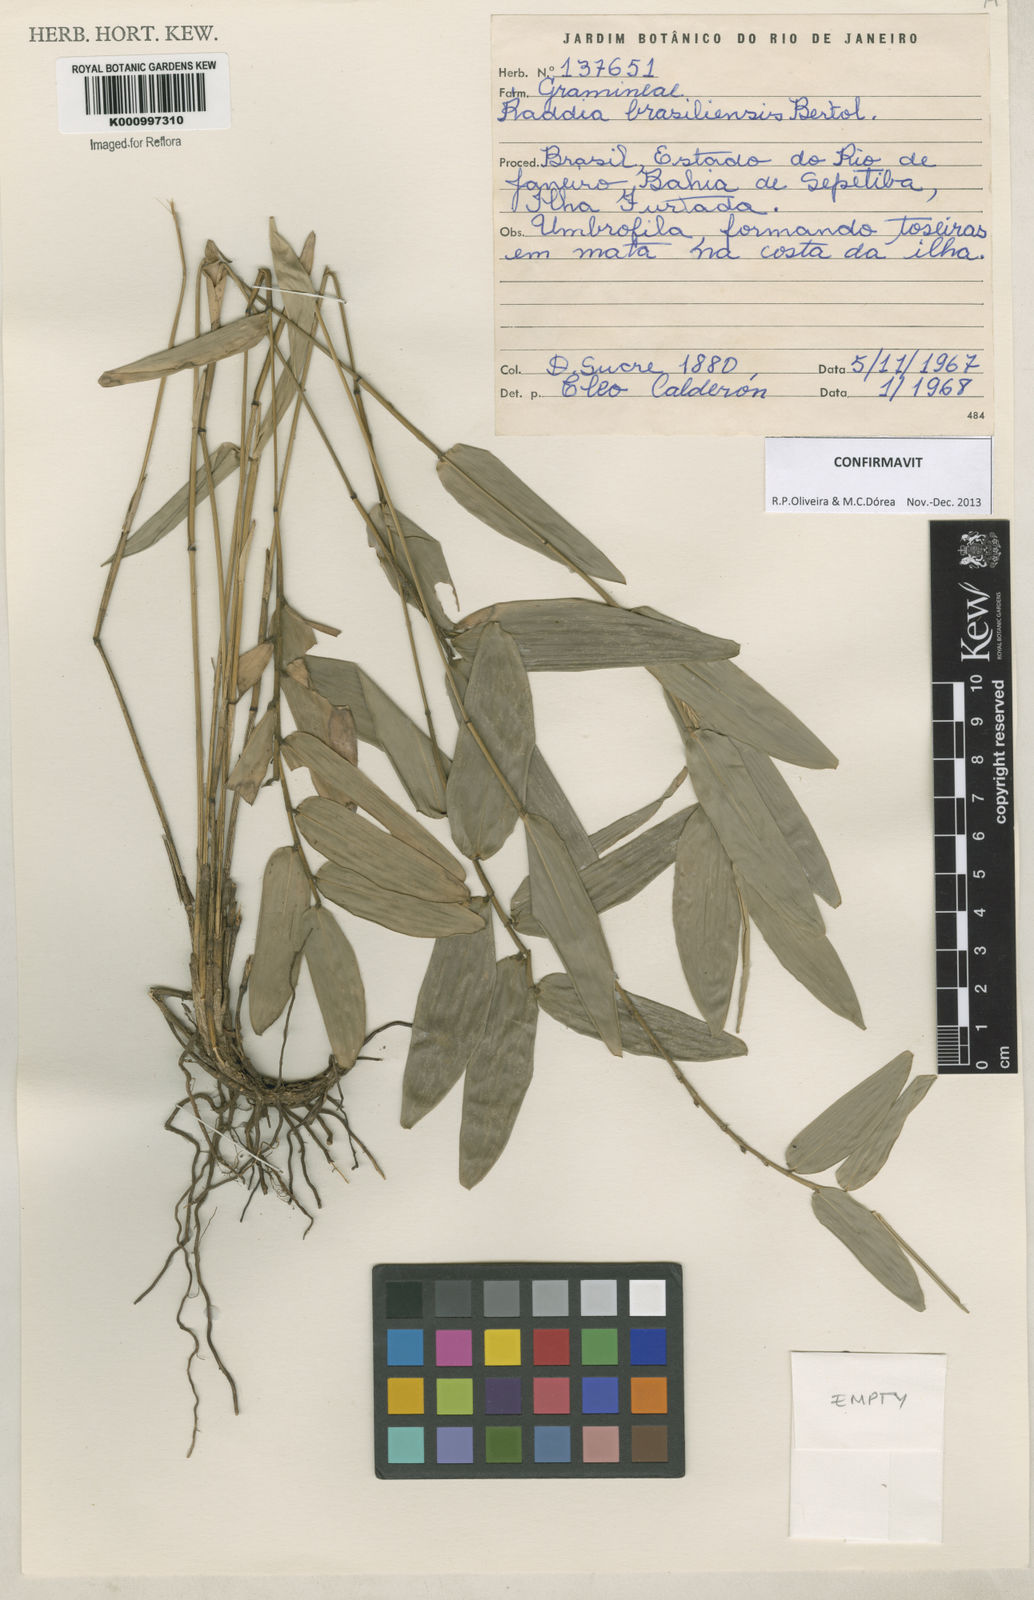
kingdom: Plantae
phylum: Tracheophyta
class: Liliopsida
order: Poales
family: Poaceae
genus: Raddia
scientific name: Raddia brasiliensis
